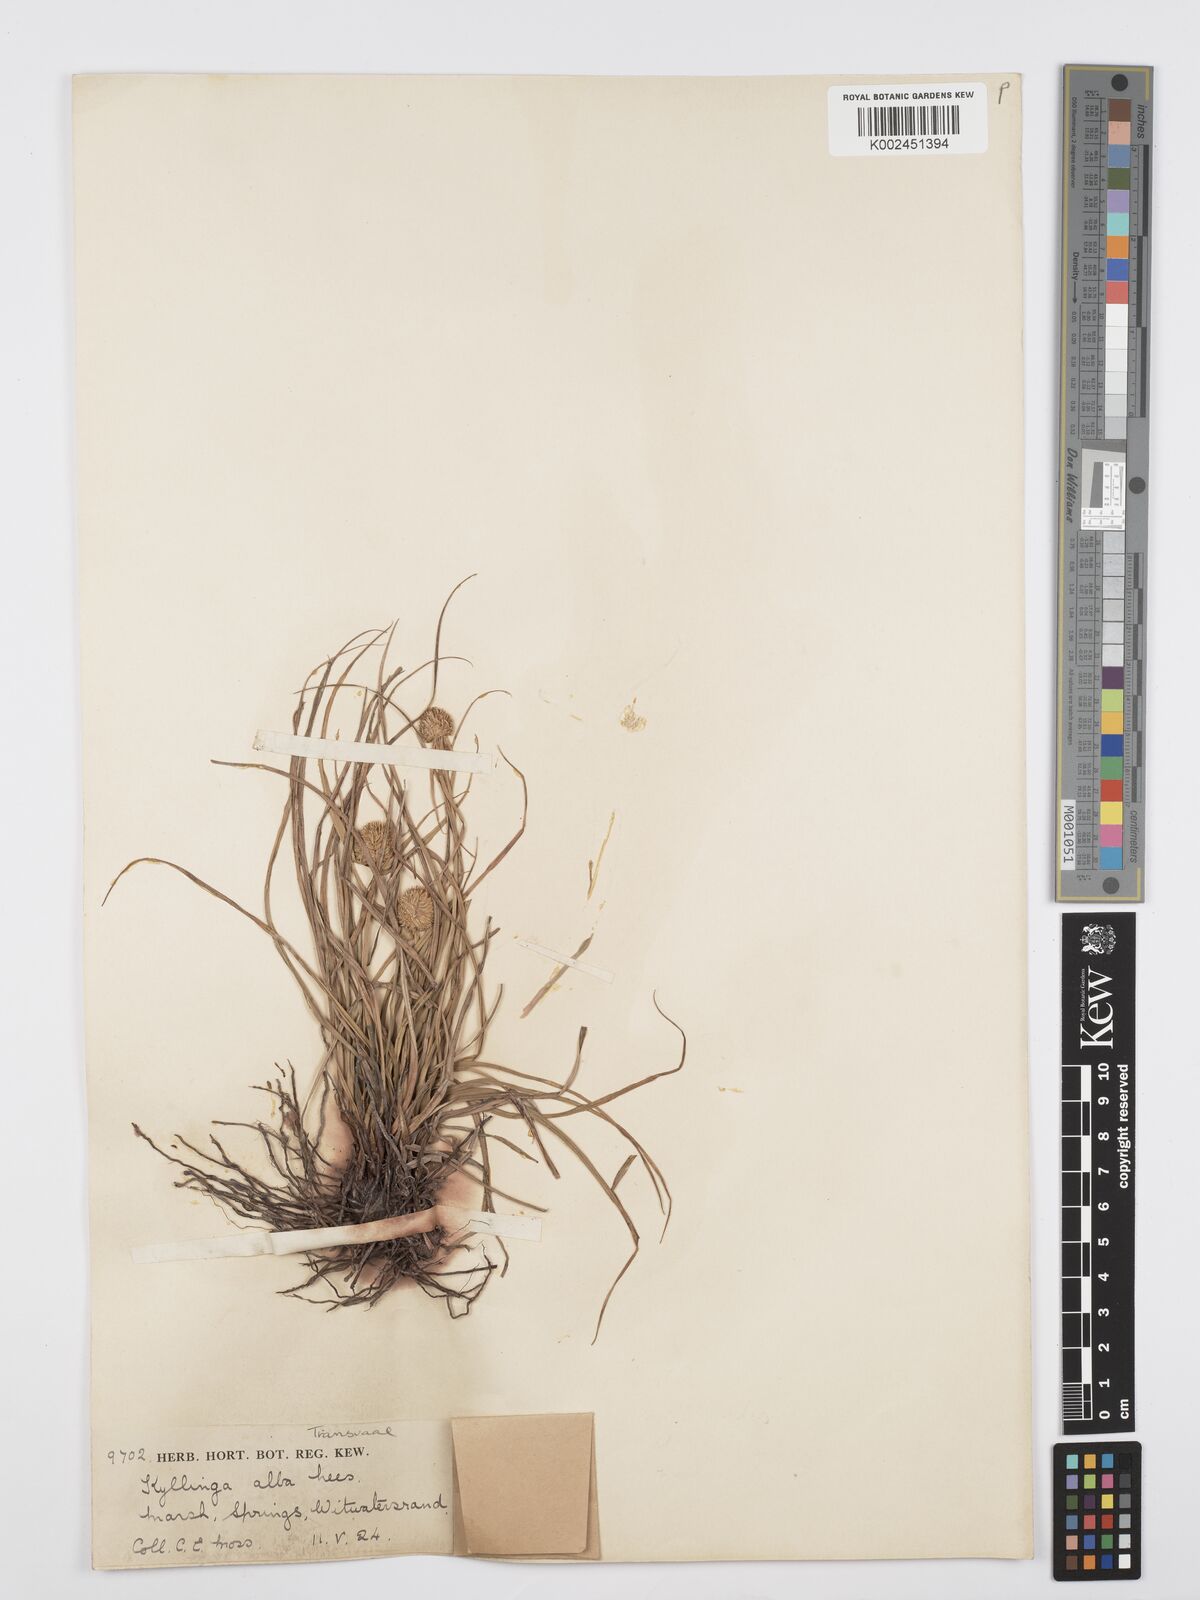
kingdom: Plantae
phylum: Tracheophyta
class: Liliopsida
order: Poales
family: Cyperaceae
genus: Cyperus
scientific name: Cyperus alatus
